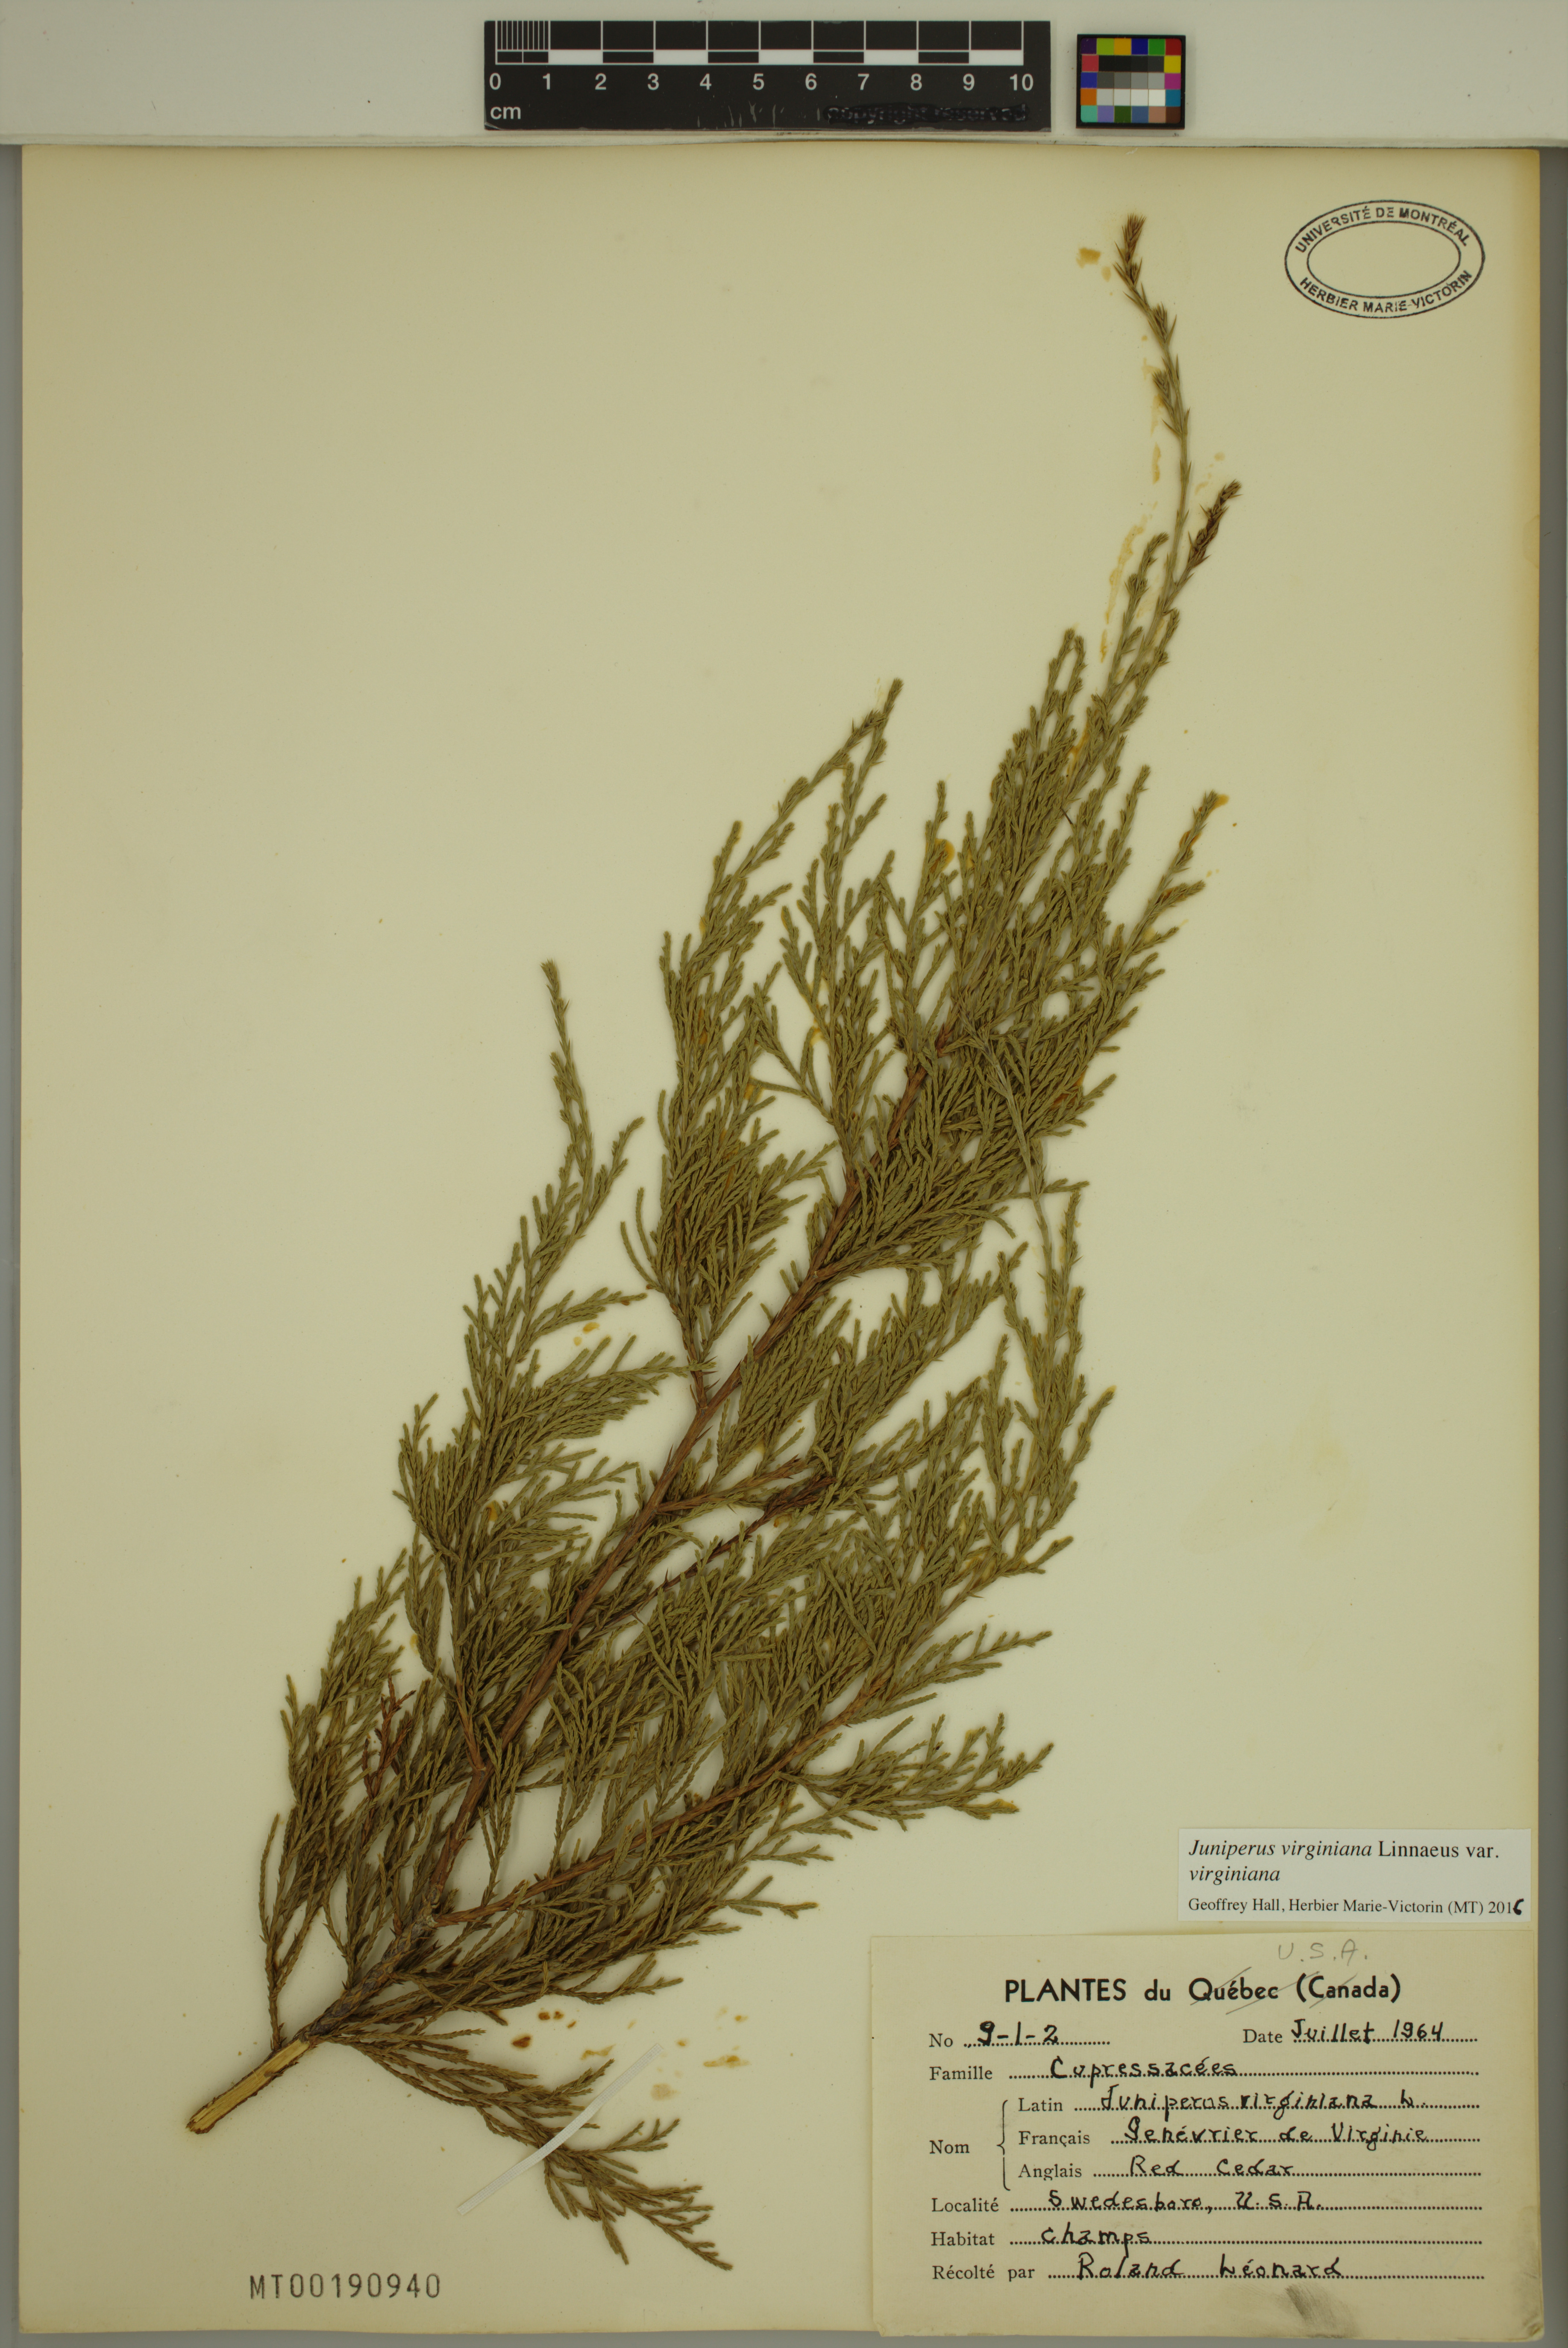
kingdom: Plantae
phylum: Tracheophyta
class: Pinopsida
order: Pinales
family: Cupressaceae
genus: Juniperus
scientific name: Juniperus virginiana
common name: Red juniper
